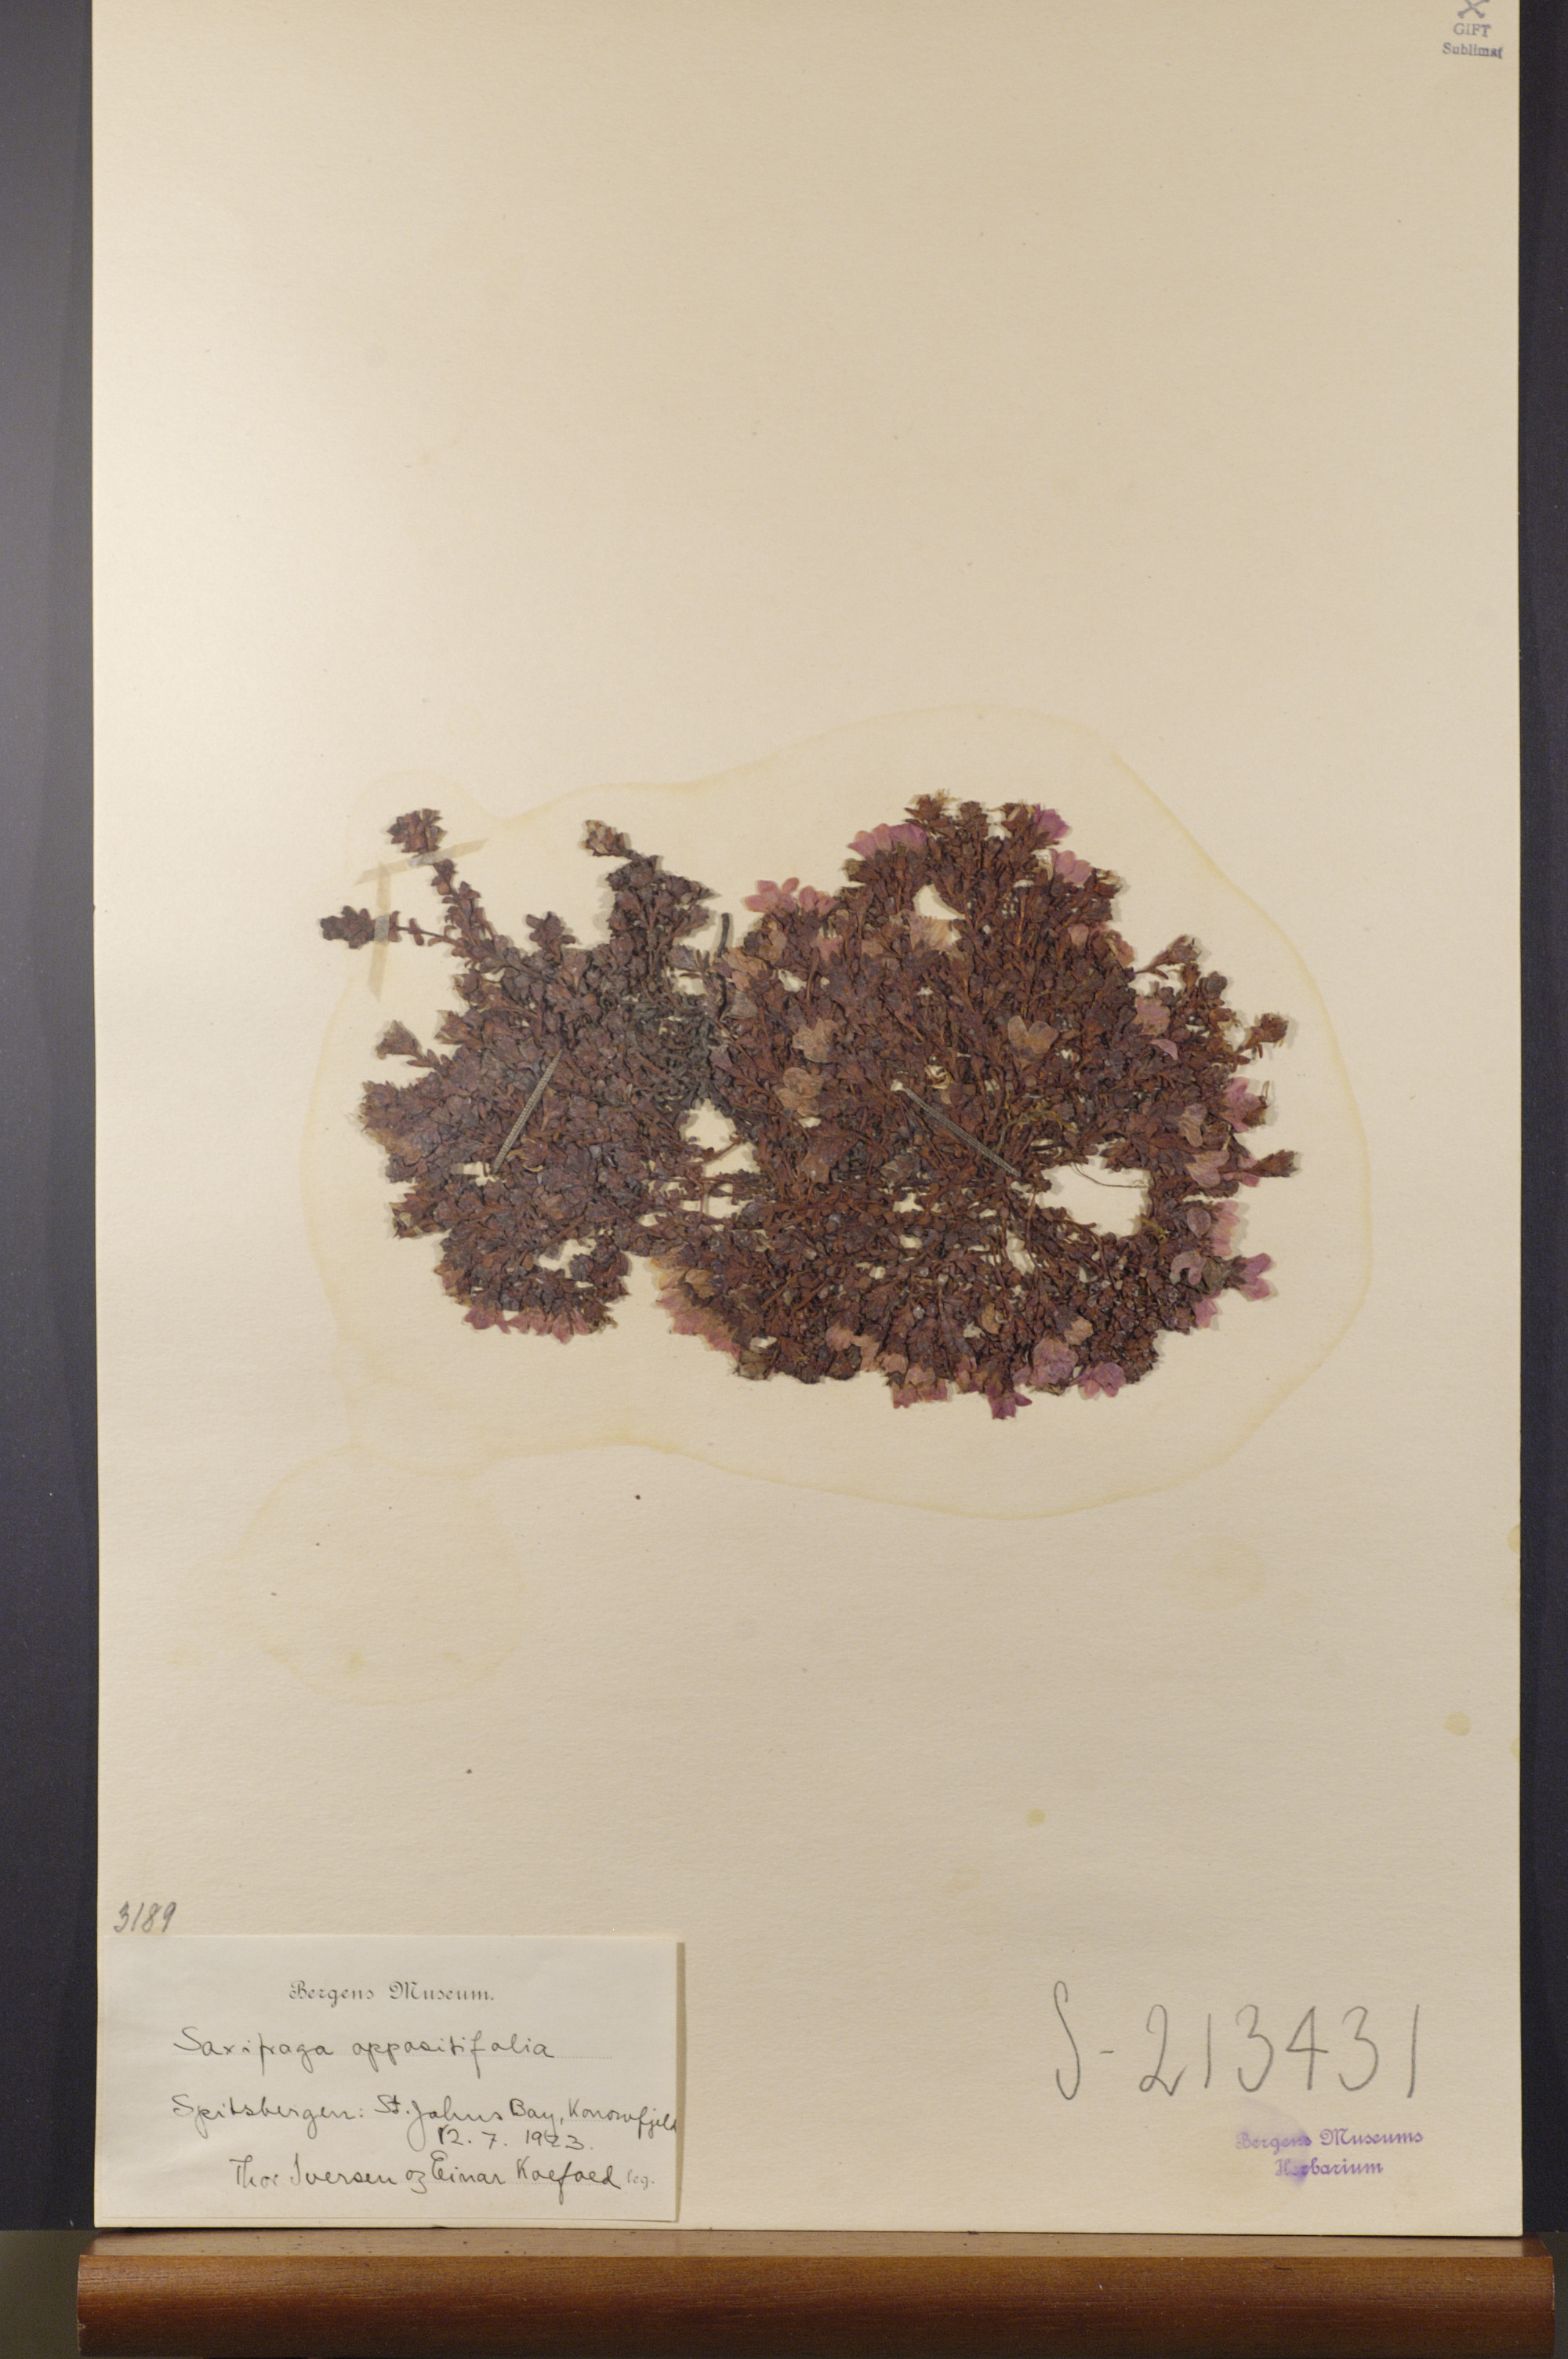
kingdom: Plantae
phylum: Tracheophyta
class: Magnoliopsida
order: Saxifragales
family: Saxifragaceae
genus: Saxifraga
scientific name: Saxifraga oppositifolia
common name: Purple saxifrage
